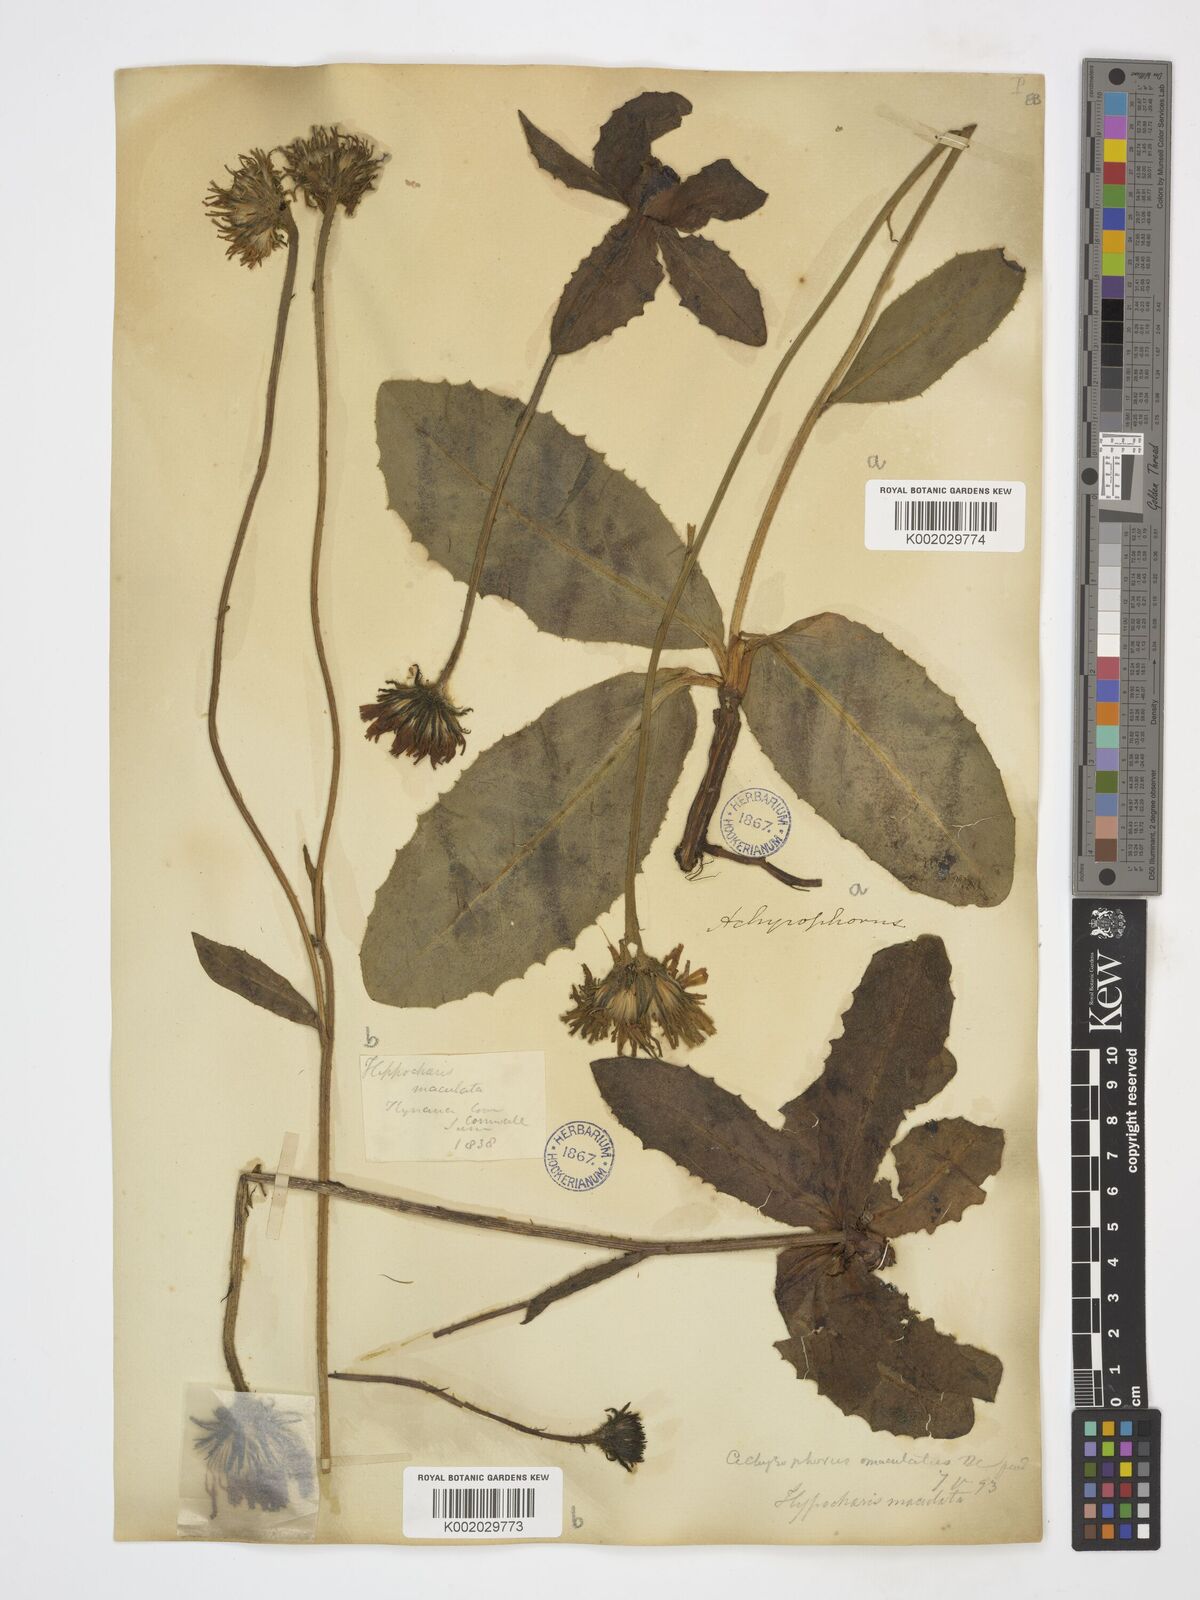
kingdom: Plantae
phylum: Tracheophyta
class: Magnoliopsida
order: Asterales
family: Asteraceae
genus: Trommsdorffia
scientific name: Trommsdorffia maculata
